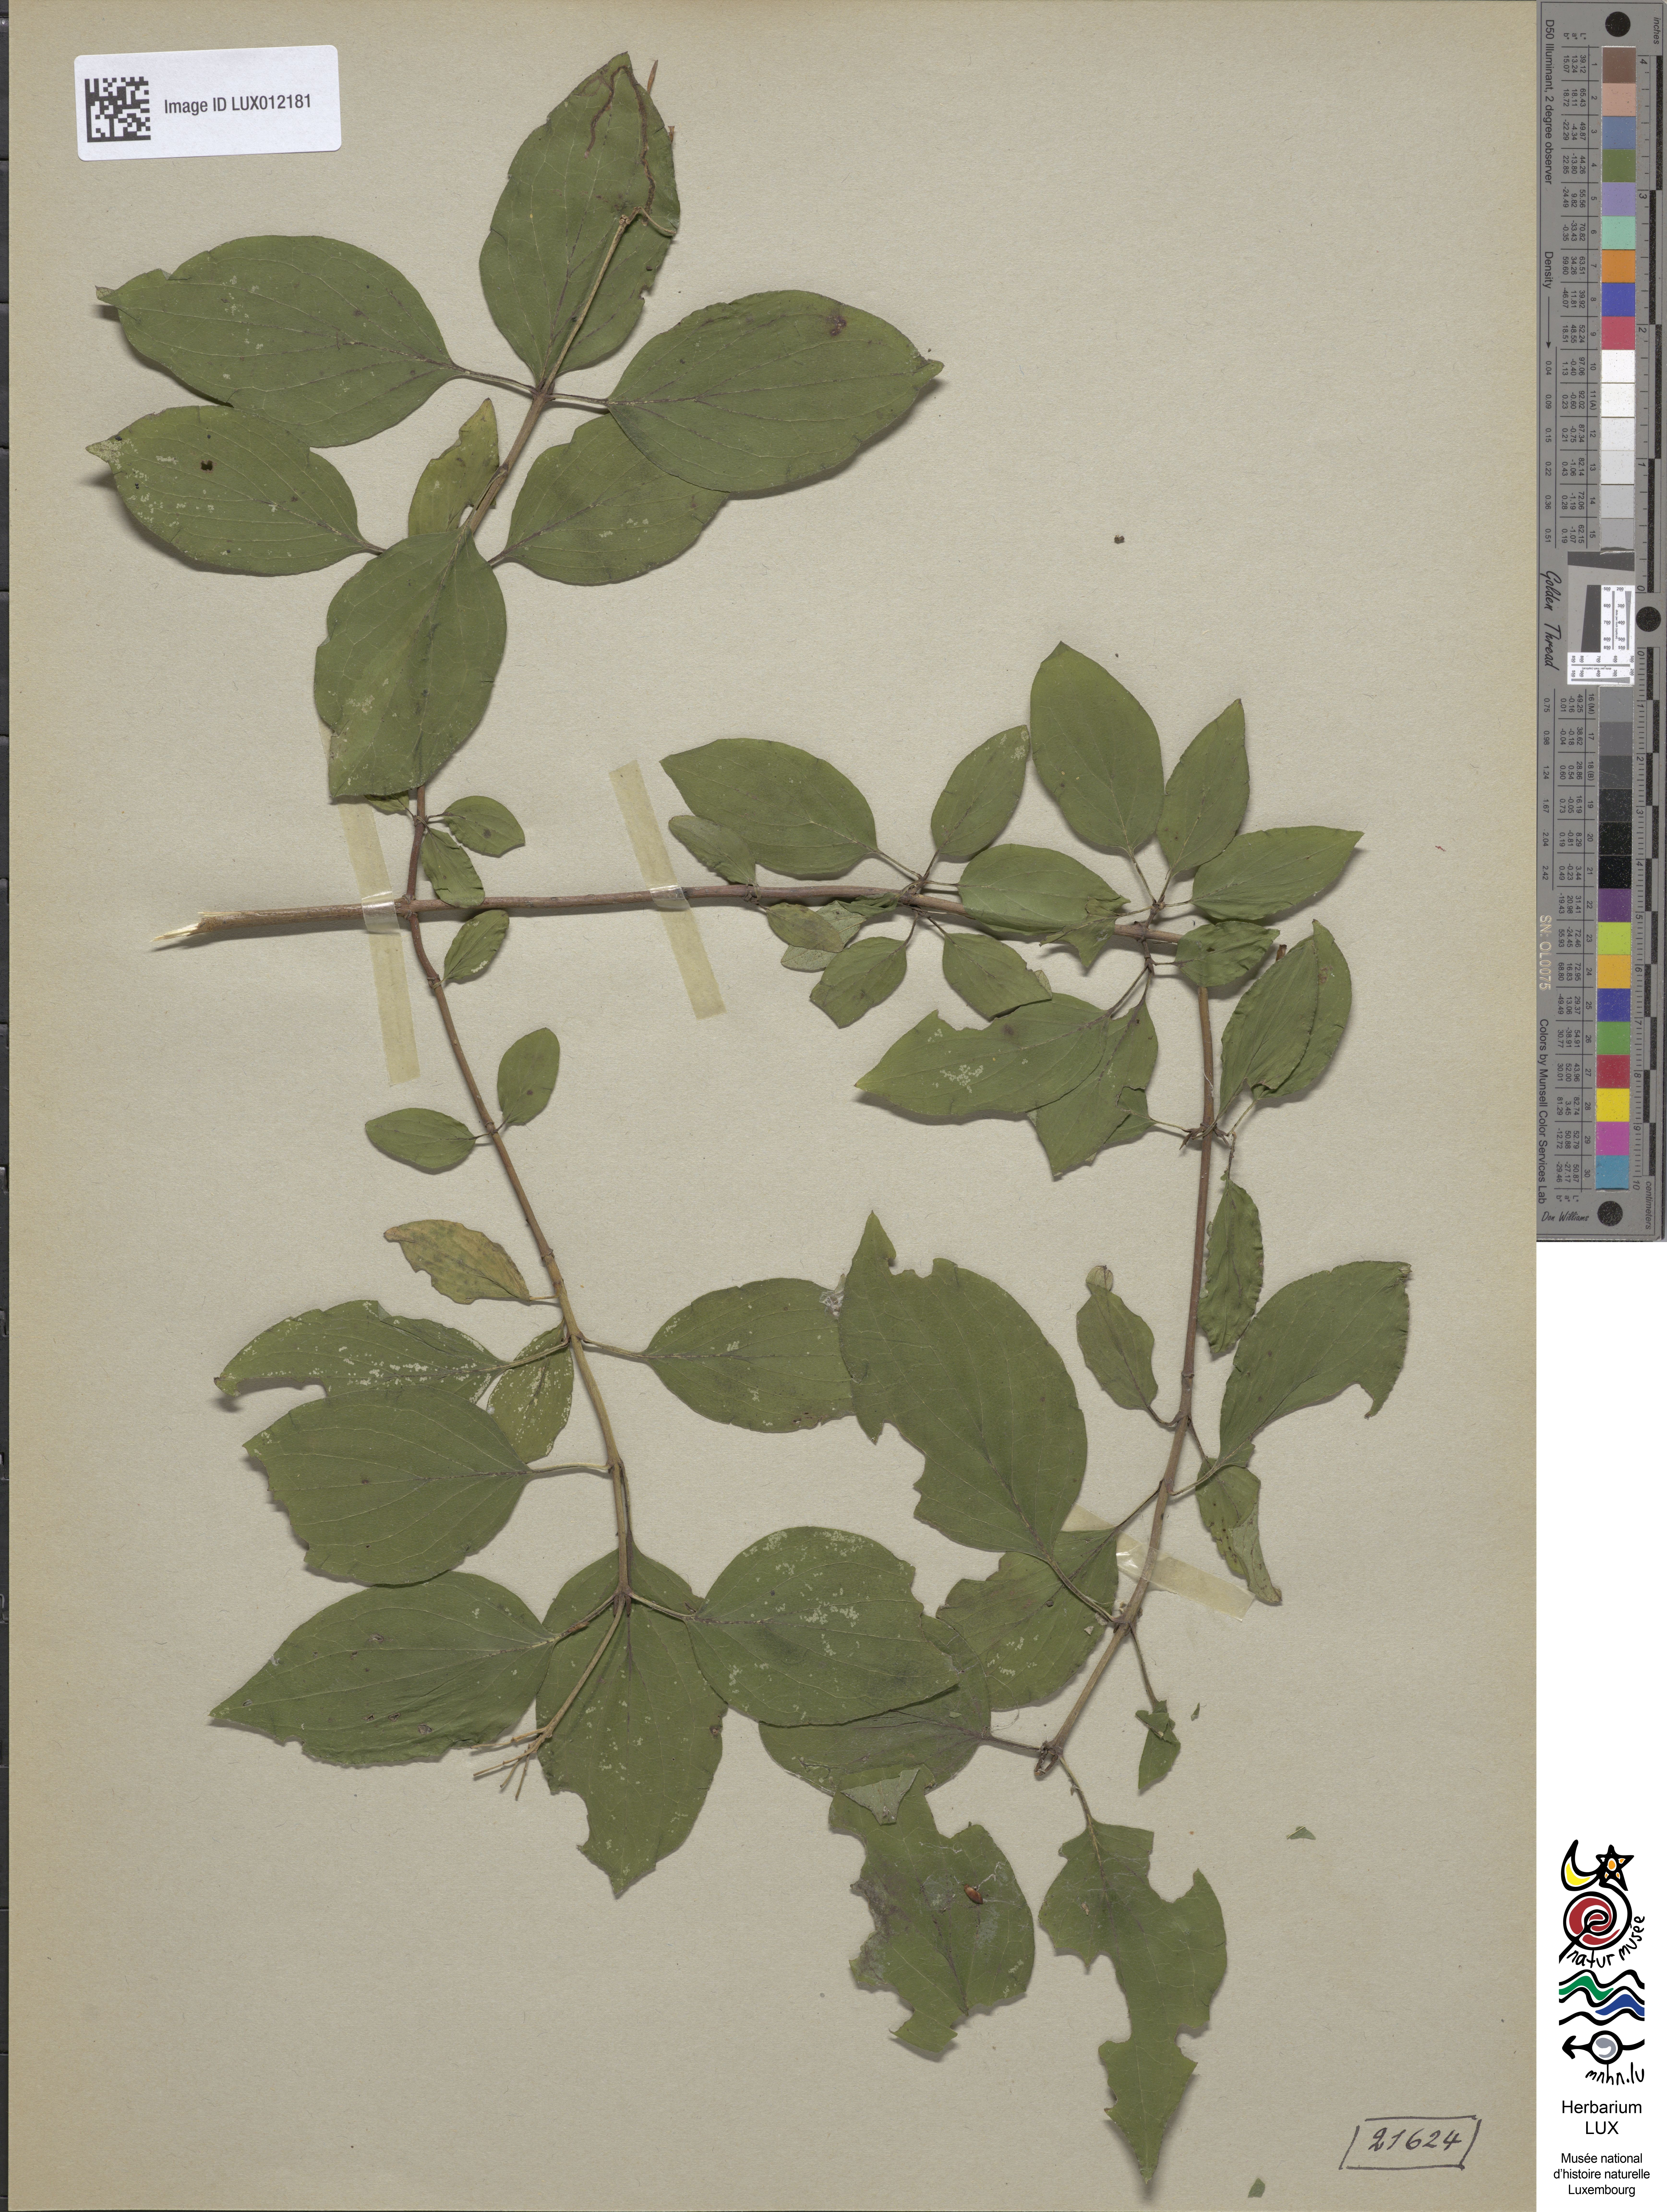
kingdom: Plantae
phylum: Tracheophyta
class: Magnoliopsida
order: Cornales
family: Cornaceae
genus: Cornus
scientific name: Cornus sanguinea
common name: Dogwood
